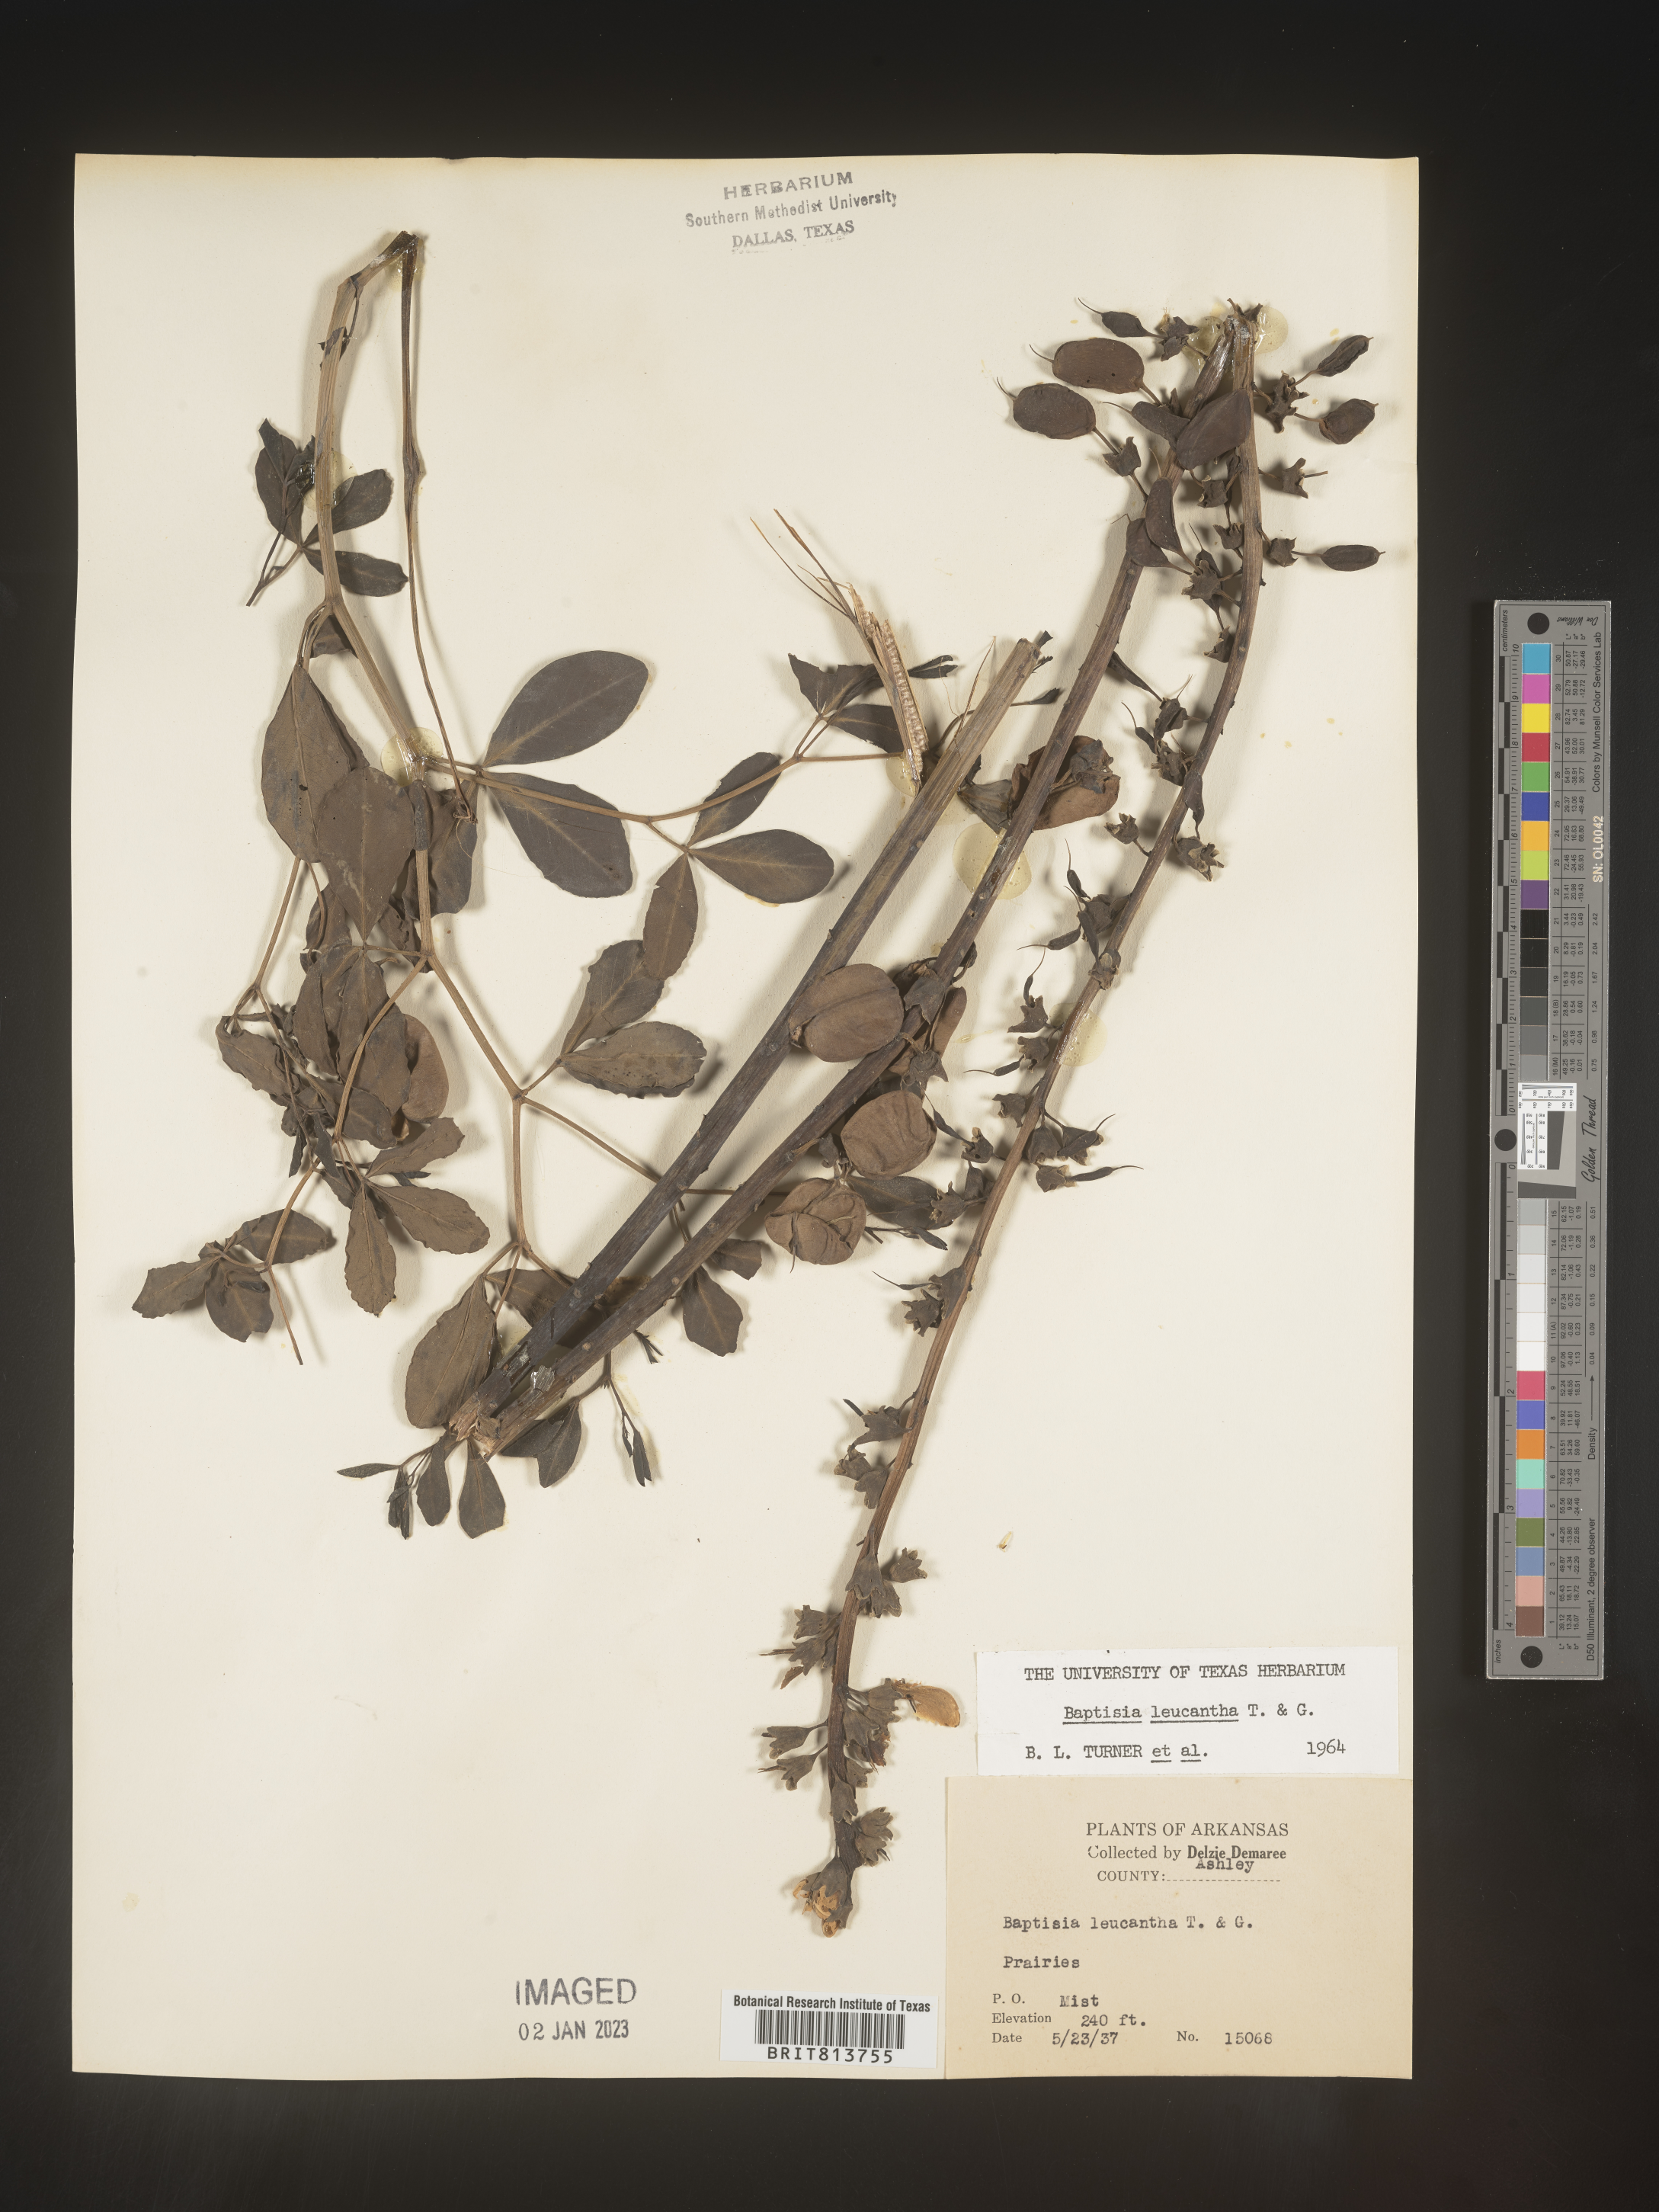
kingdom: Plantae
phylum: Tracheophyta
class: Magnoliopsida
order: Fabales
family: Fabaceae
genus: Baptisia
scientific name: Baptisia alba
